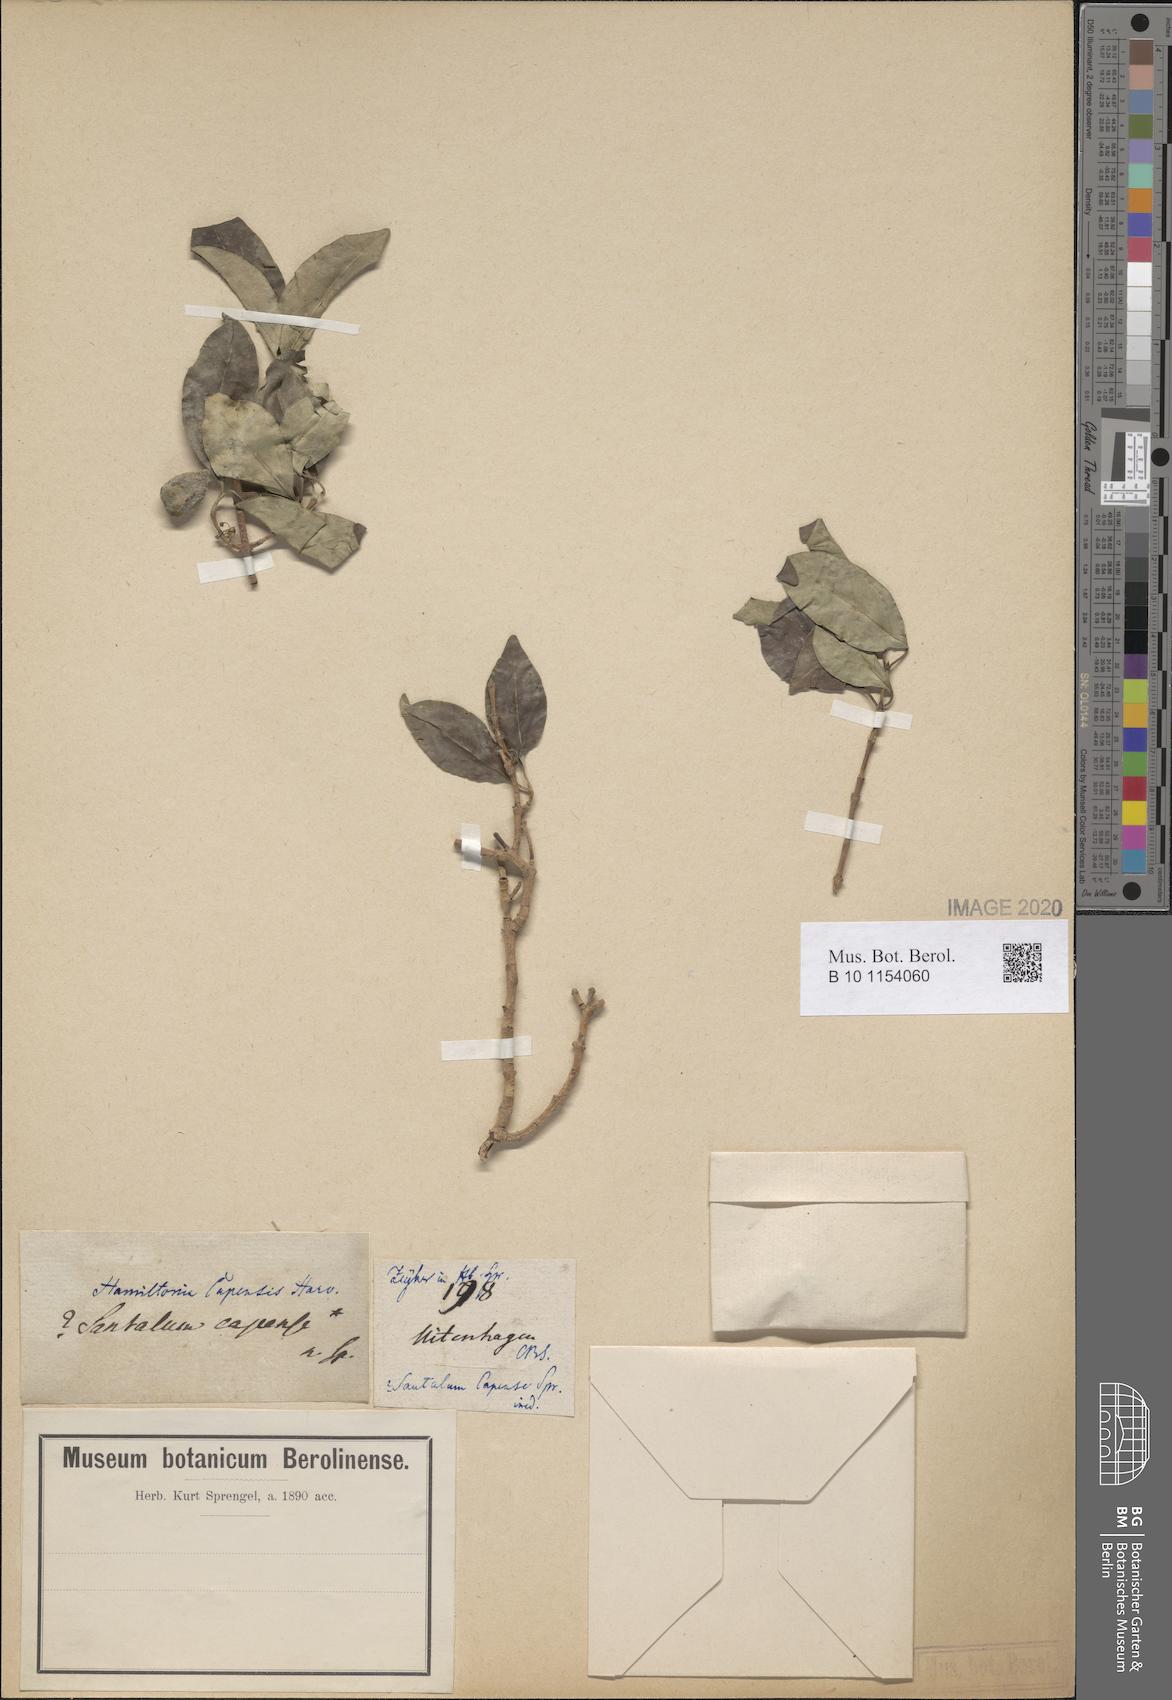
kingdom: Plantae
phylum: Tracheophyta
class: Magnoliopsida
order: Santalales
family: Santalaceae
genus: Rhoiacarpos
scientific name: Rhoiacarpos capensis
